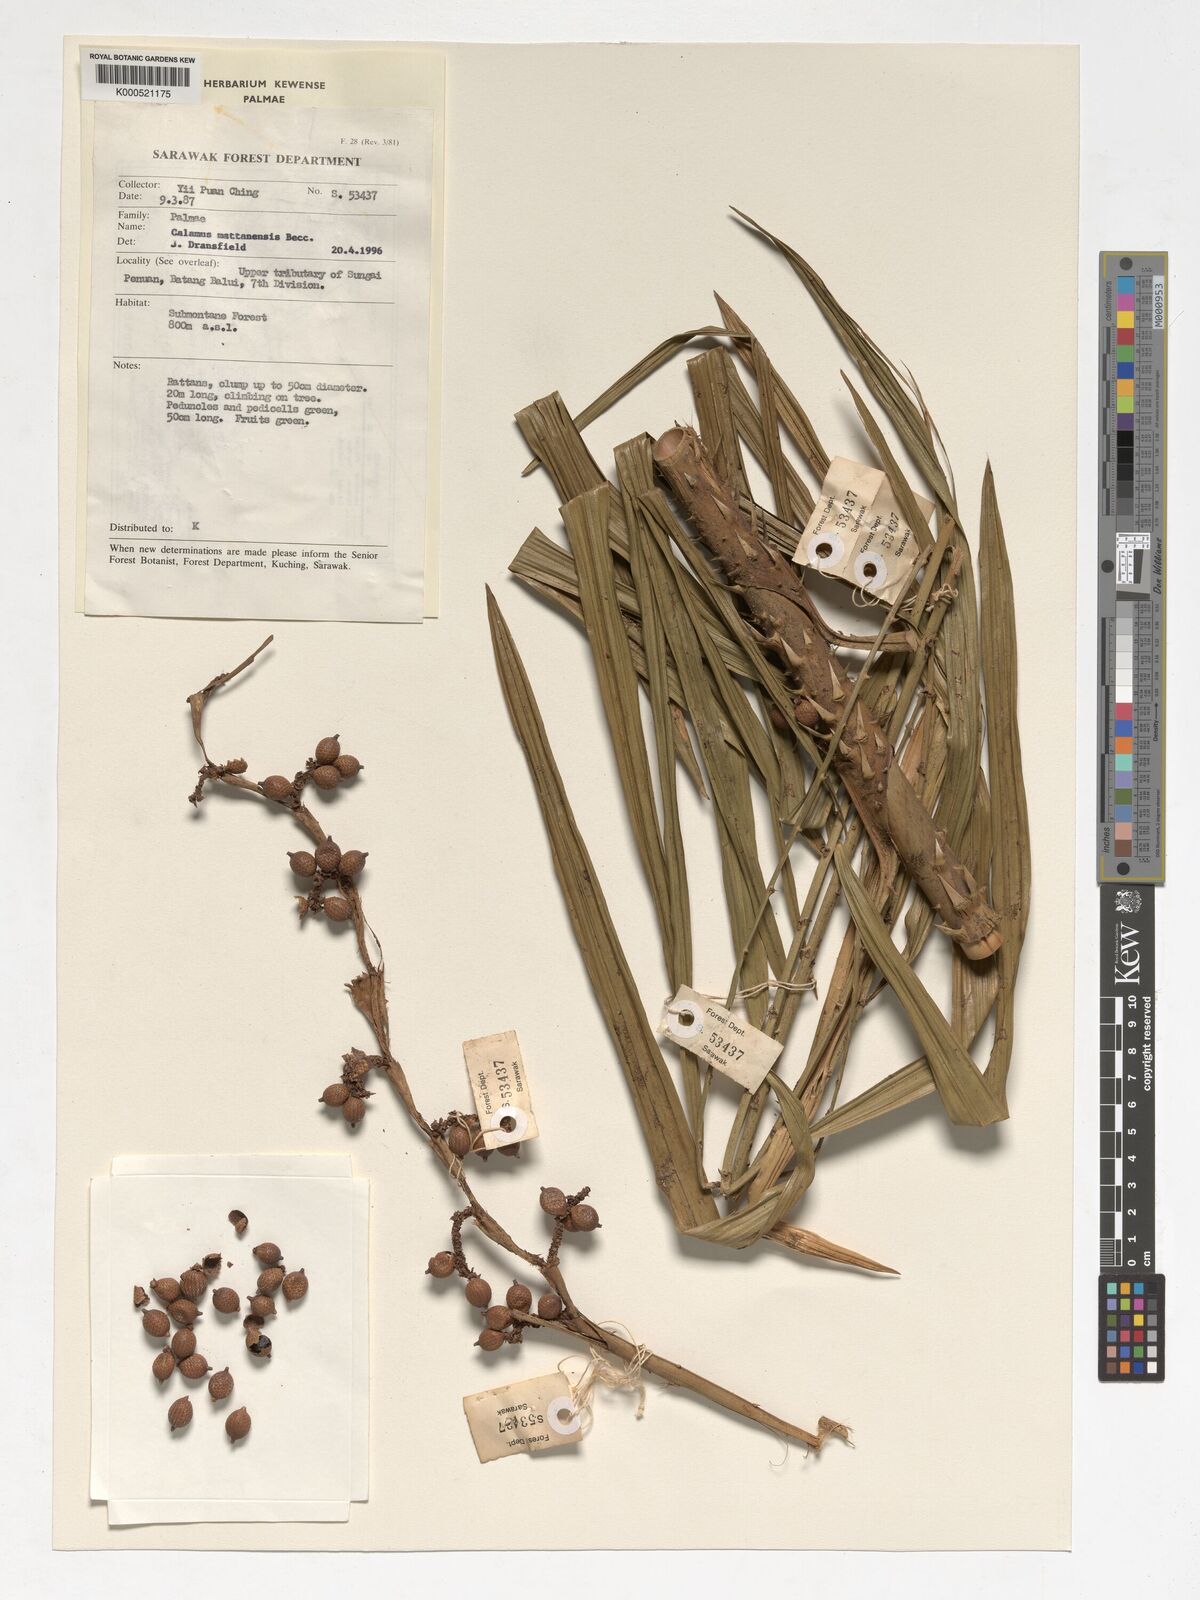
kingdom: Plantae
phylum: Tracheophyta
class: Liliopsida
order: Arecales
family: Arecaceae
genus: Calamus
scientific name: Calamus
